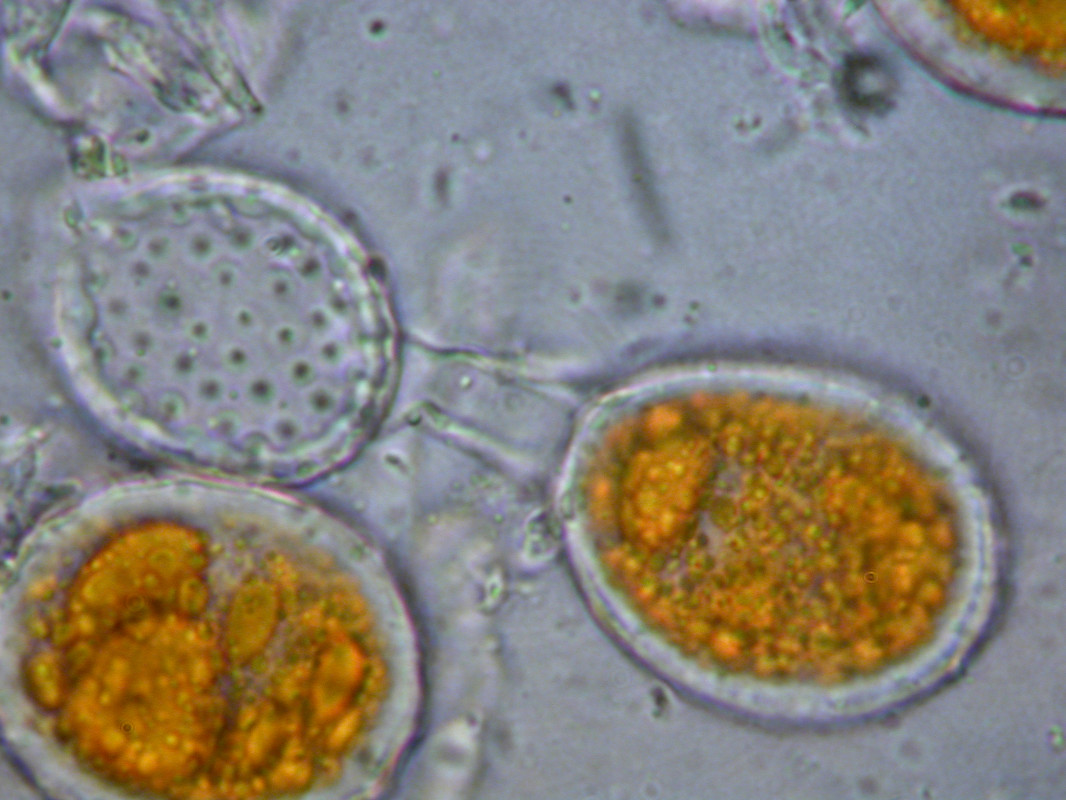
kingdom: Fungi
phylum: Basidiomycota
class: Pucciniomycetes
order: Pucciniales
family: Raveneliaceae
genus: Triphragmium
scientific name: Triphragmium ulmariae
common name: almindelig mjødurtrust
